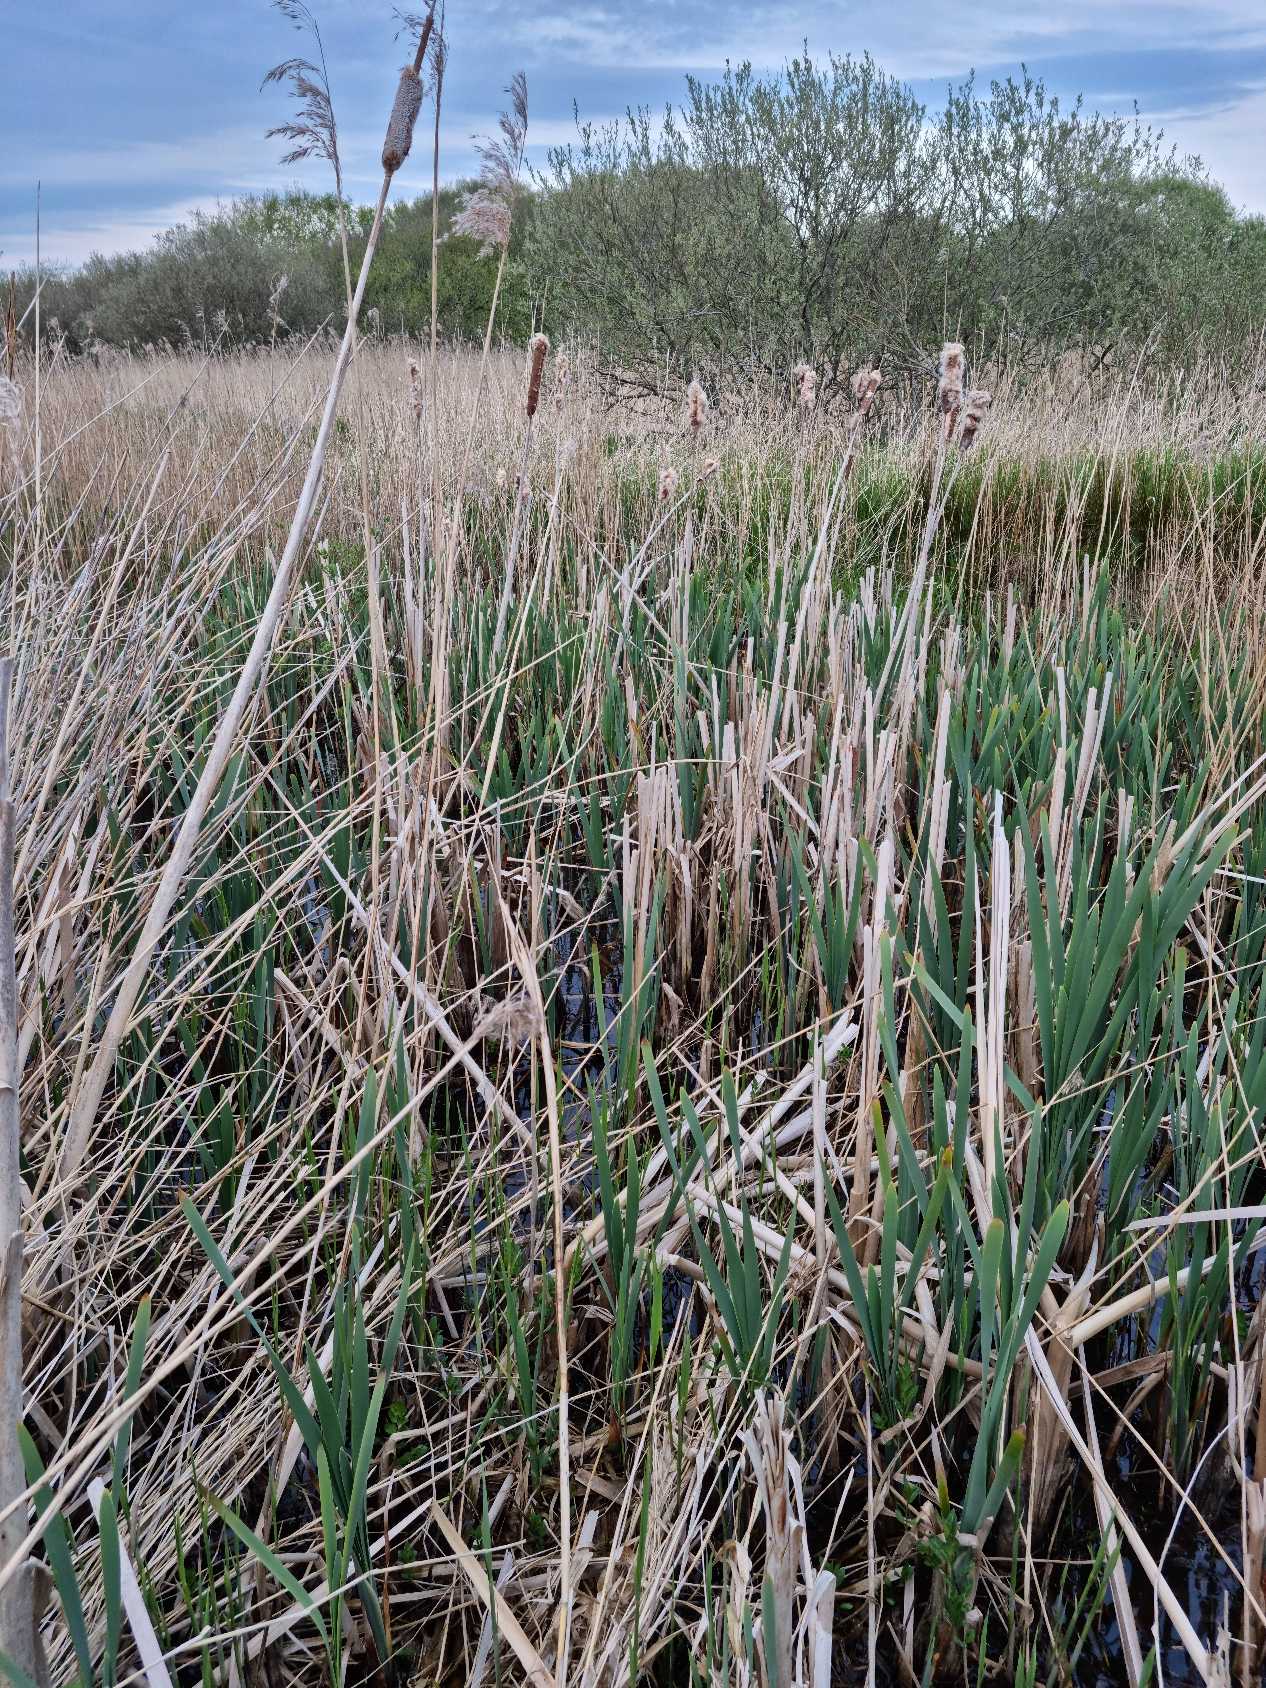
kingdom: Plantae
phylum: Tracheophyta
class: Liliopsida
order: Poales
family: Typhaceae
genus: Typha
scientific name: Typha latifolia
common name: Bredbladet dunhammer
